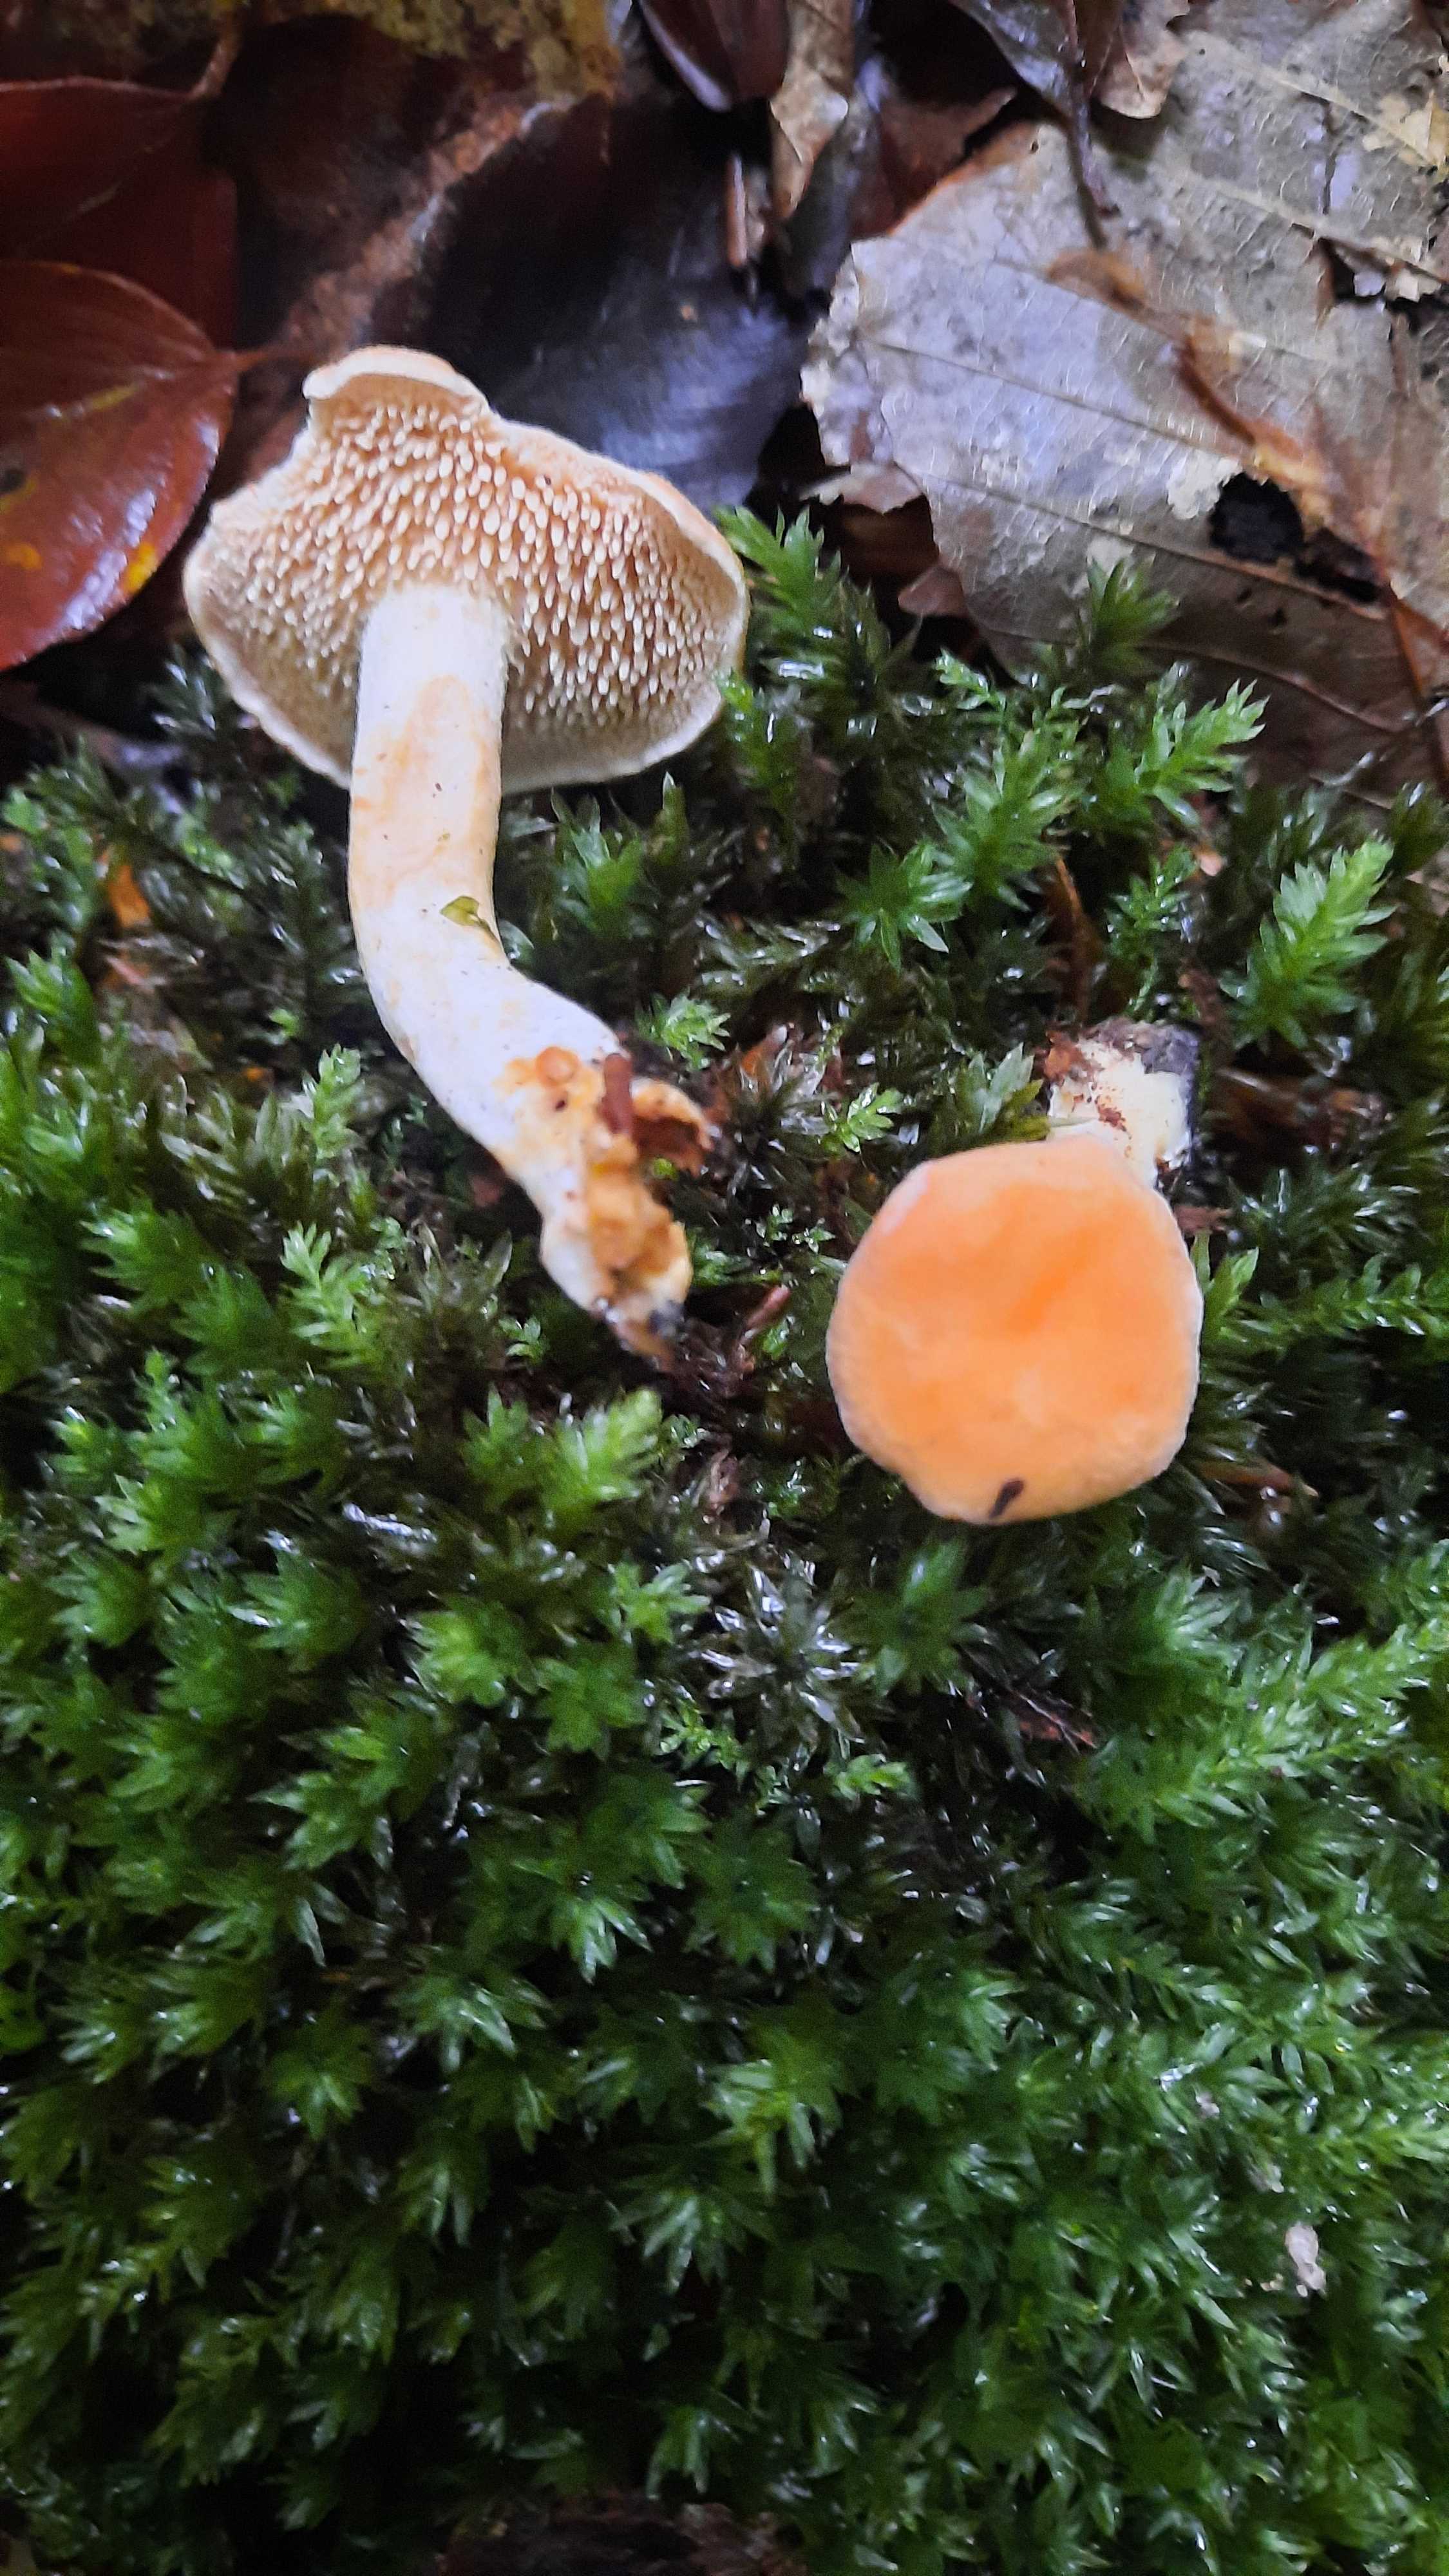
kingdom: Fungi
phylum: Basidiomycota
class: Agaricomycetes
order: Cantharellales
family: Hydnaceae
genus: Hydnum
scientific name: Hydnum
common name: pigsvamp
